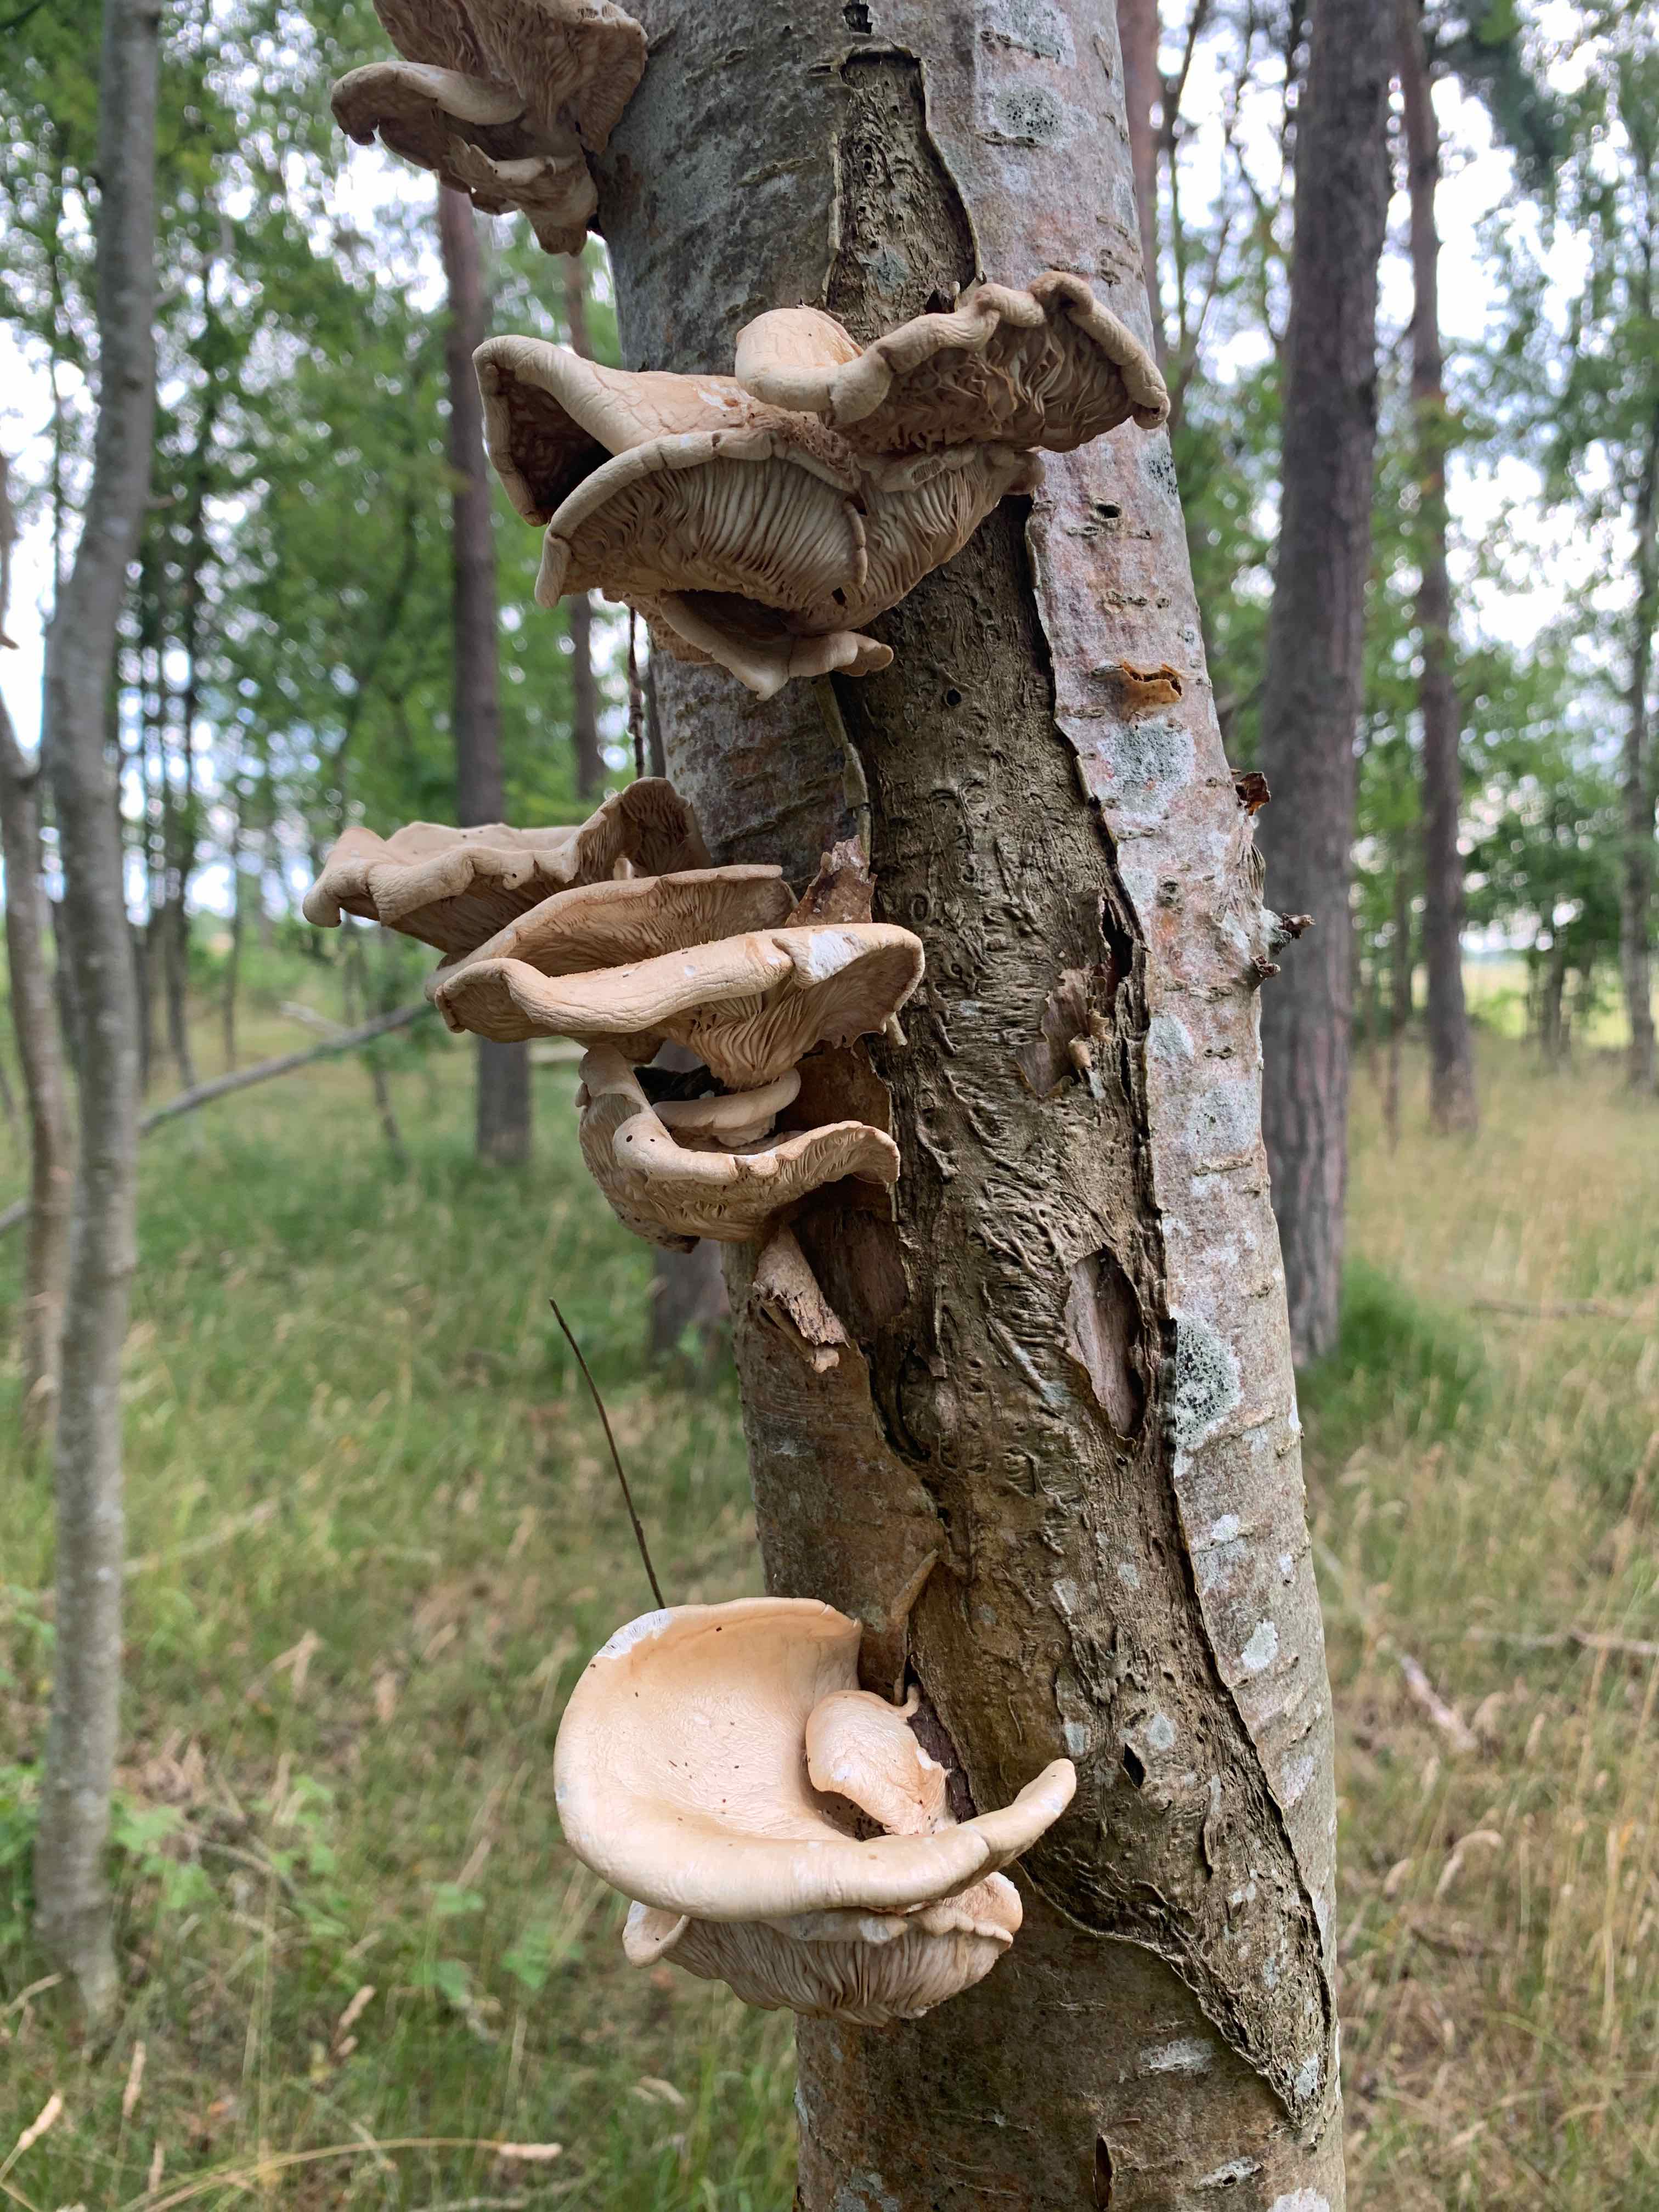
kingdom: Fungi
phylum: Basidiomycota
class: Agaricomycetes
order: Agaricales
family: Pleurotaceae
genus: Pleurotus
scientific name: Pleurotus pulmonarius
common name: sommer-østershat
